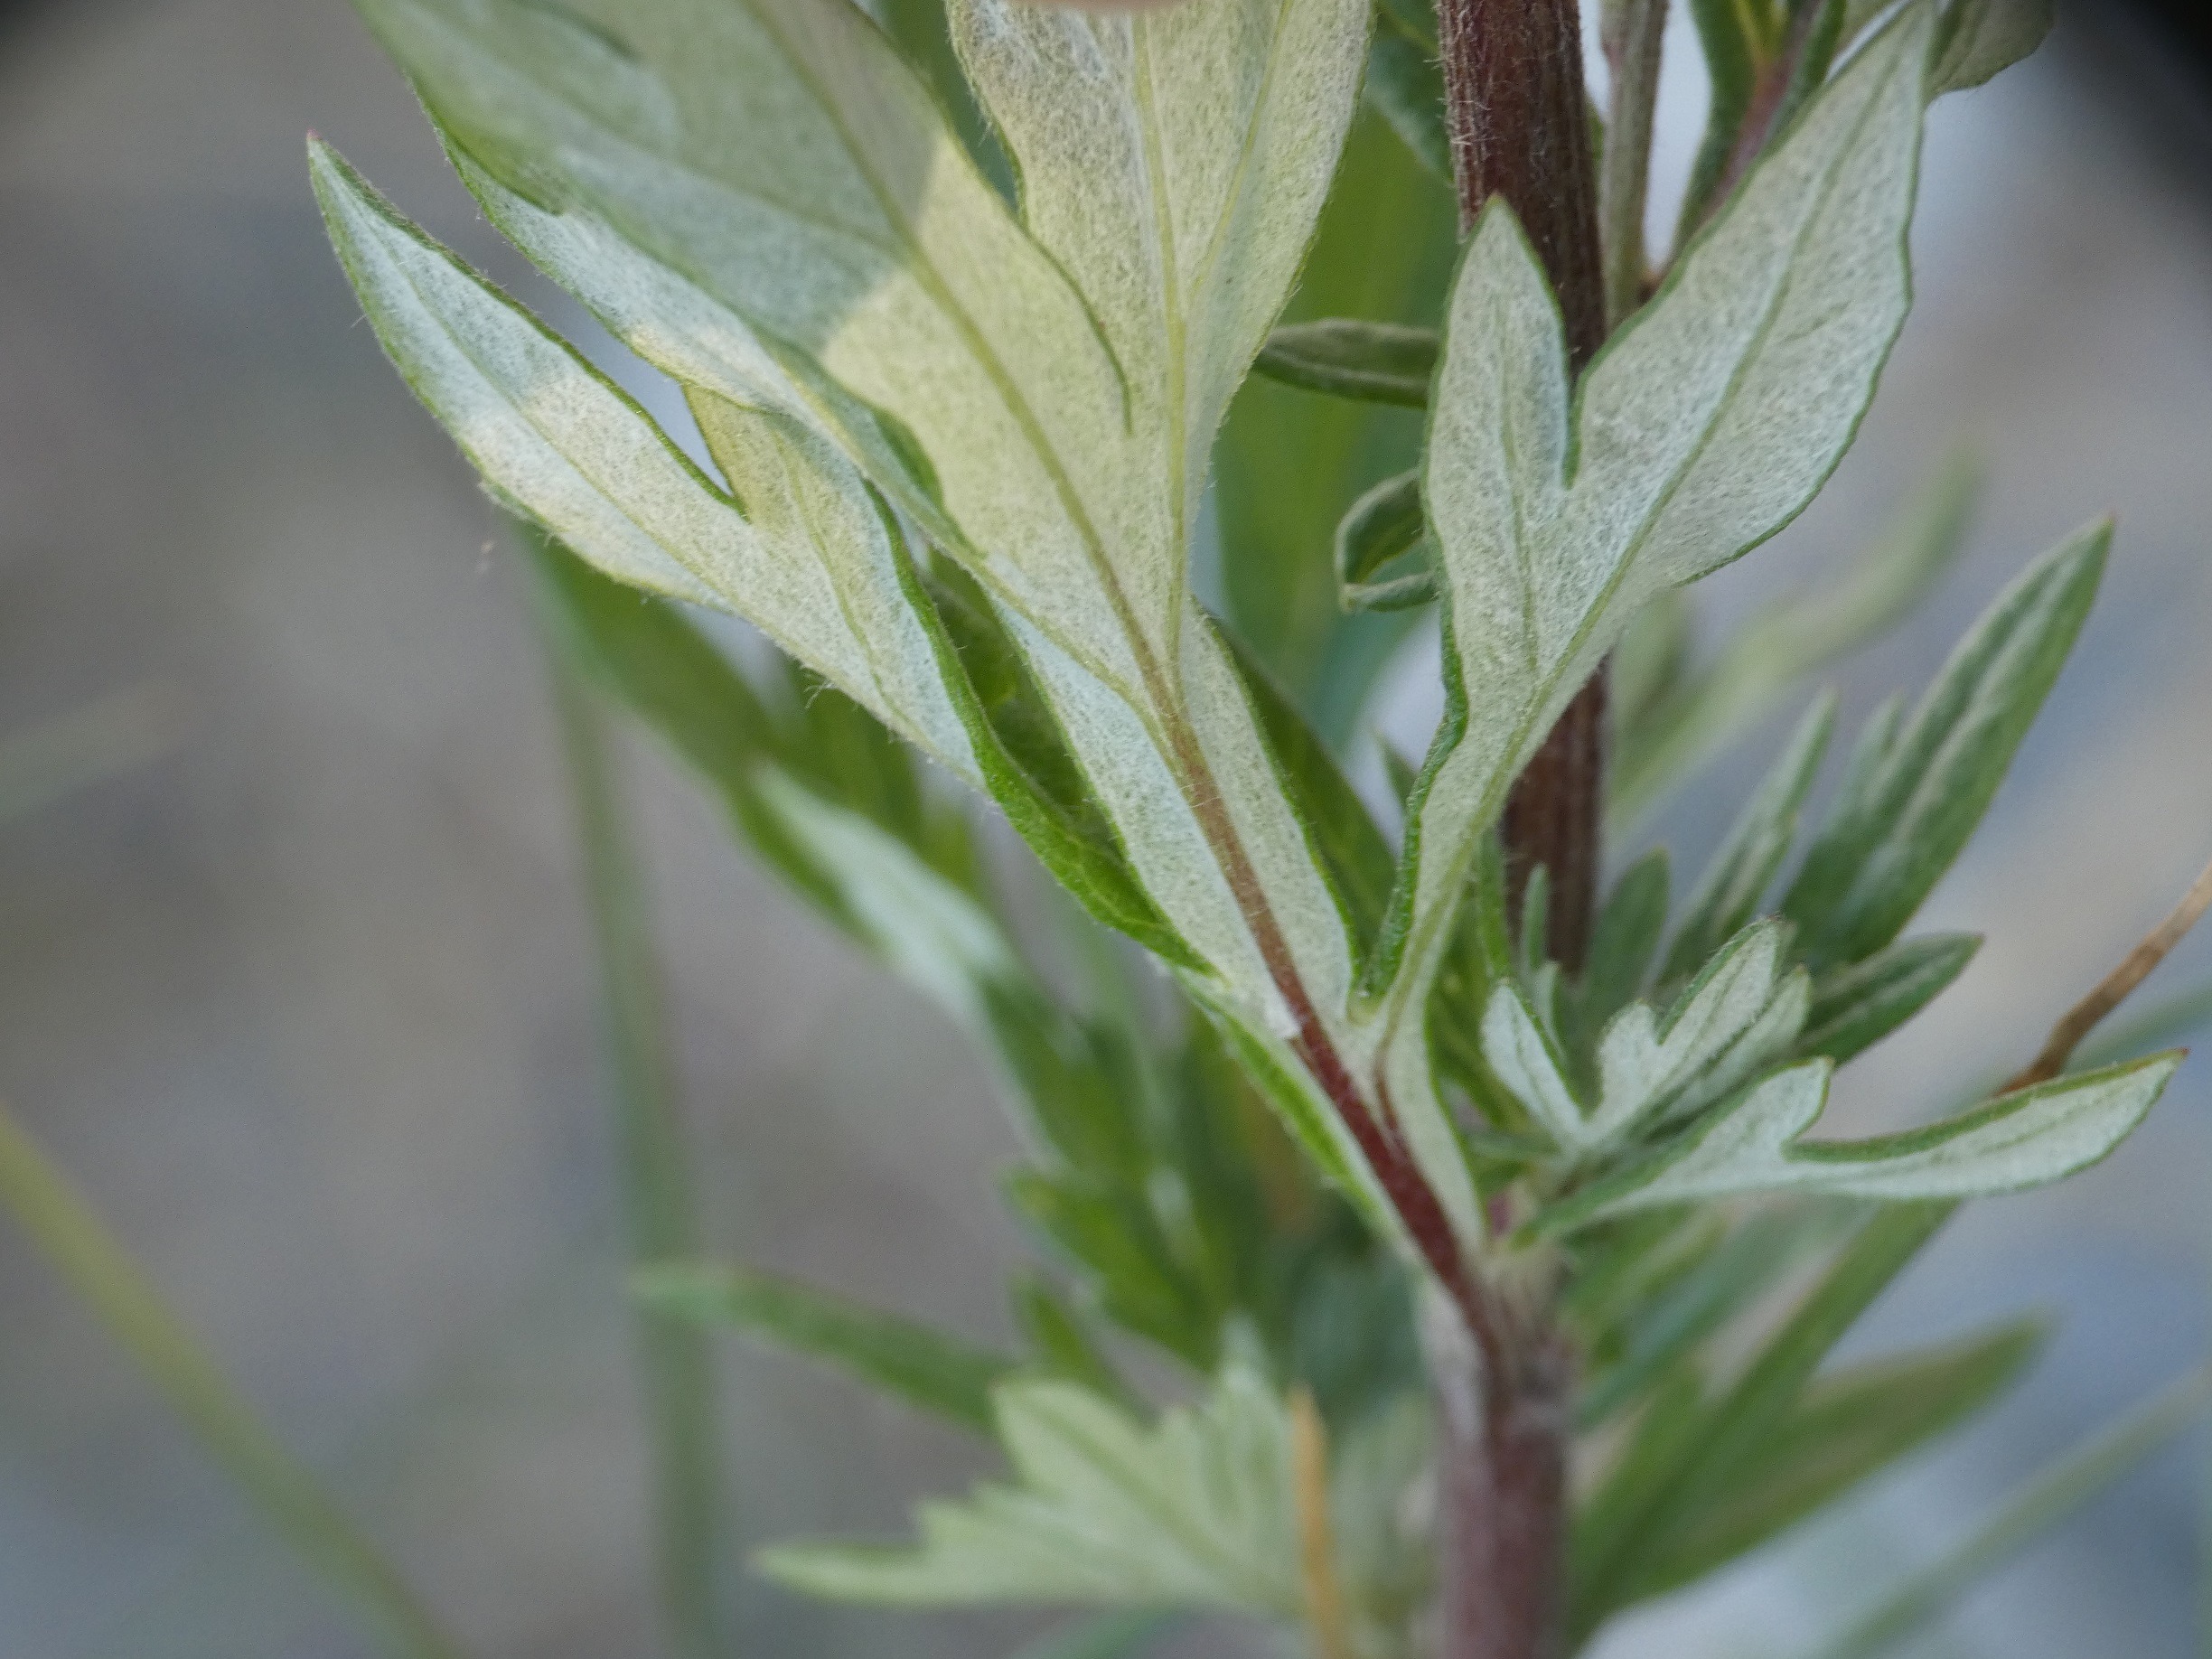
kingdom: Plantae
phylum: Tracheophyta
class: Magnoliopsida
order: Asterales
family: Asteraceae
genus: Artemisia
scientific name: Artemisia vulgaris
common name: Grå-bynke
